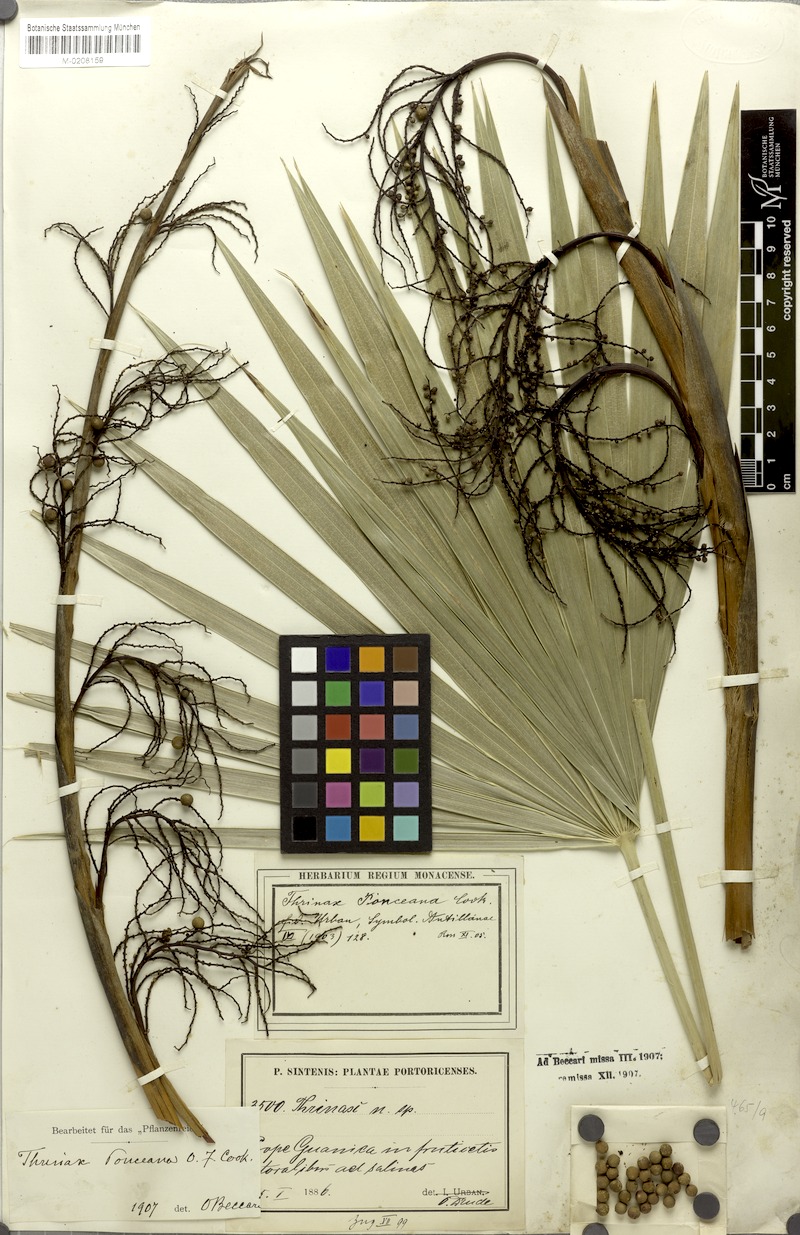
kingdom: Plantae
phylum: Tracheophyta
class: Liliopsida
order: Arecales
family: Arecaceae
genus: Leucothrinax
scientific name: Leucothrinax morrisii
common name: Key palm
